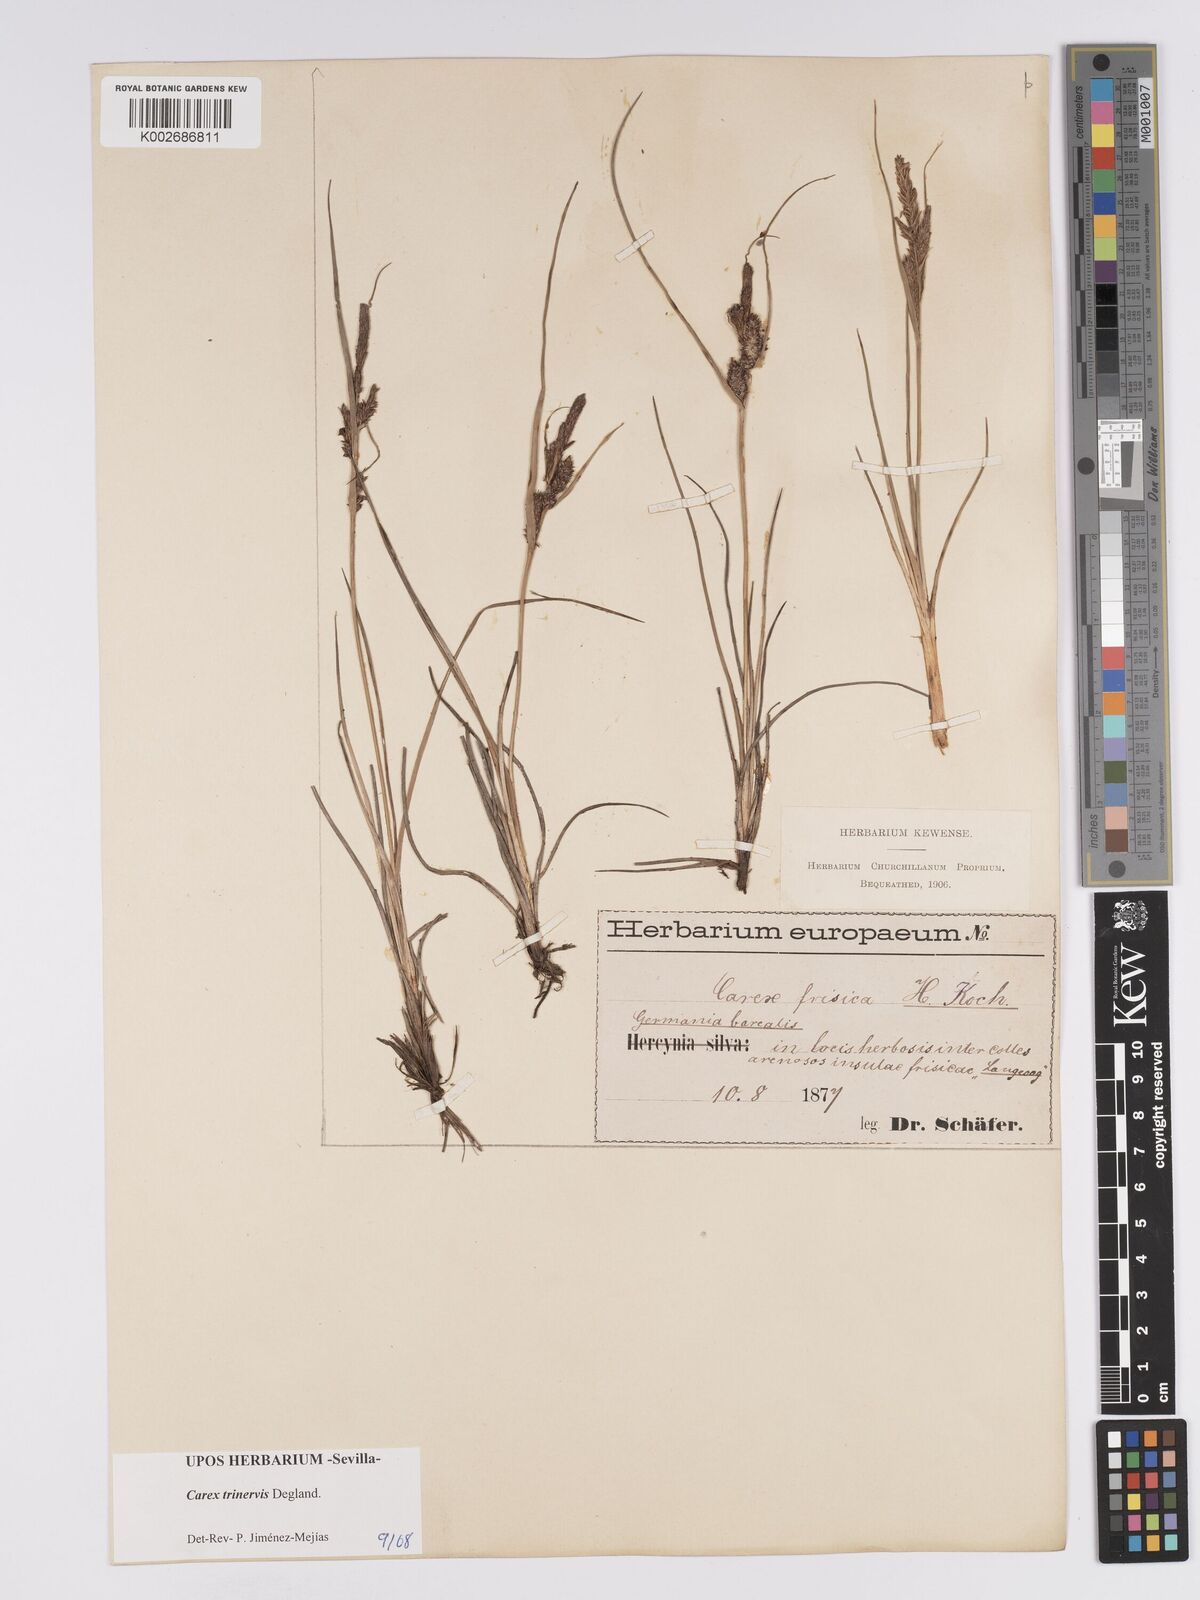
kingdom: Plantae
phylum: Tracheophyta
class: Liliopsida
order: Poales
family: Cyperaceae
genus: Carex
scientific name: Carex trinervis
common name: Three-nerved sedge
